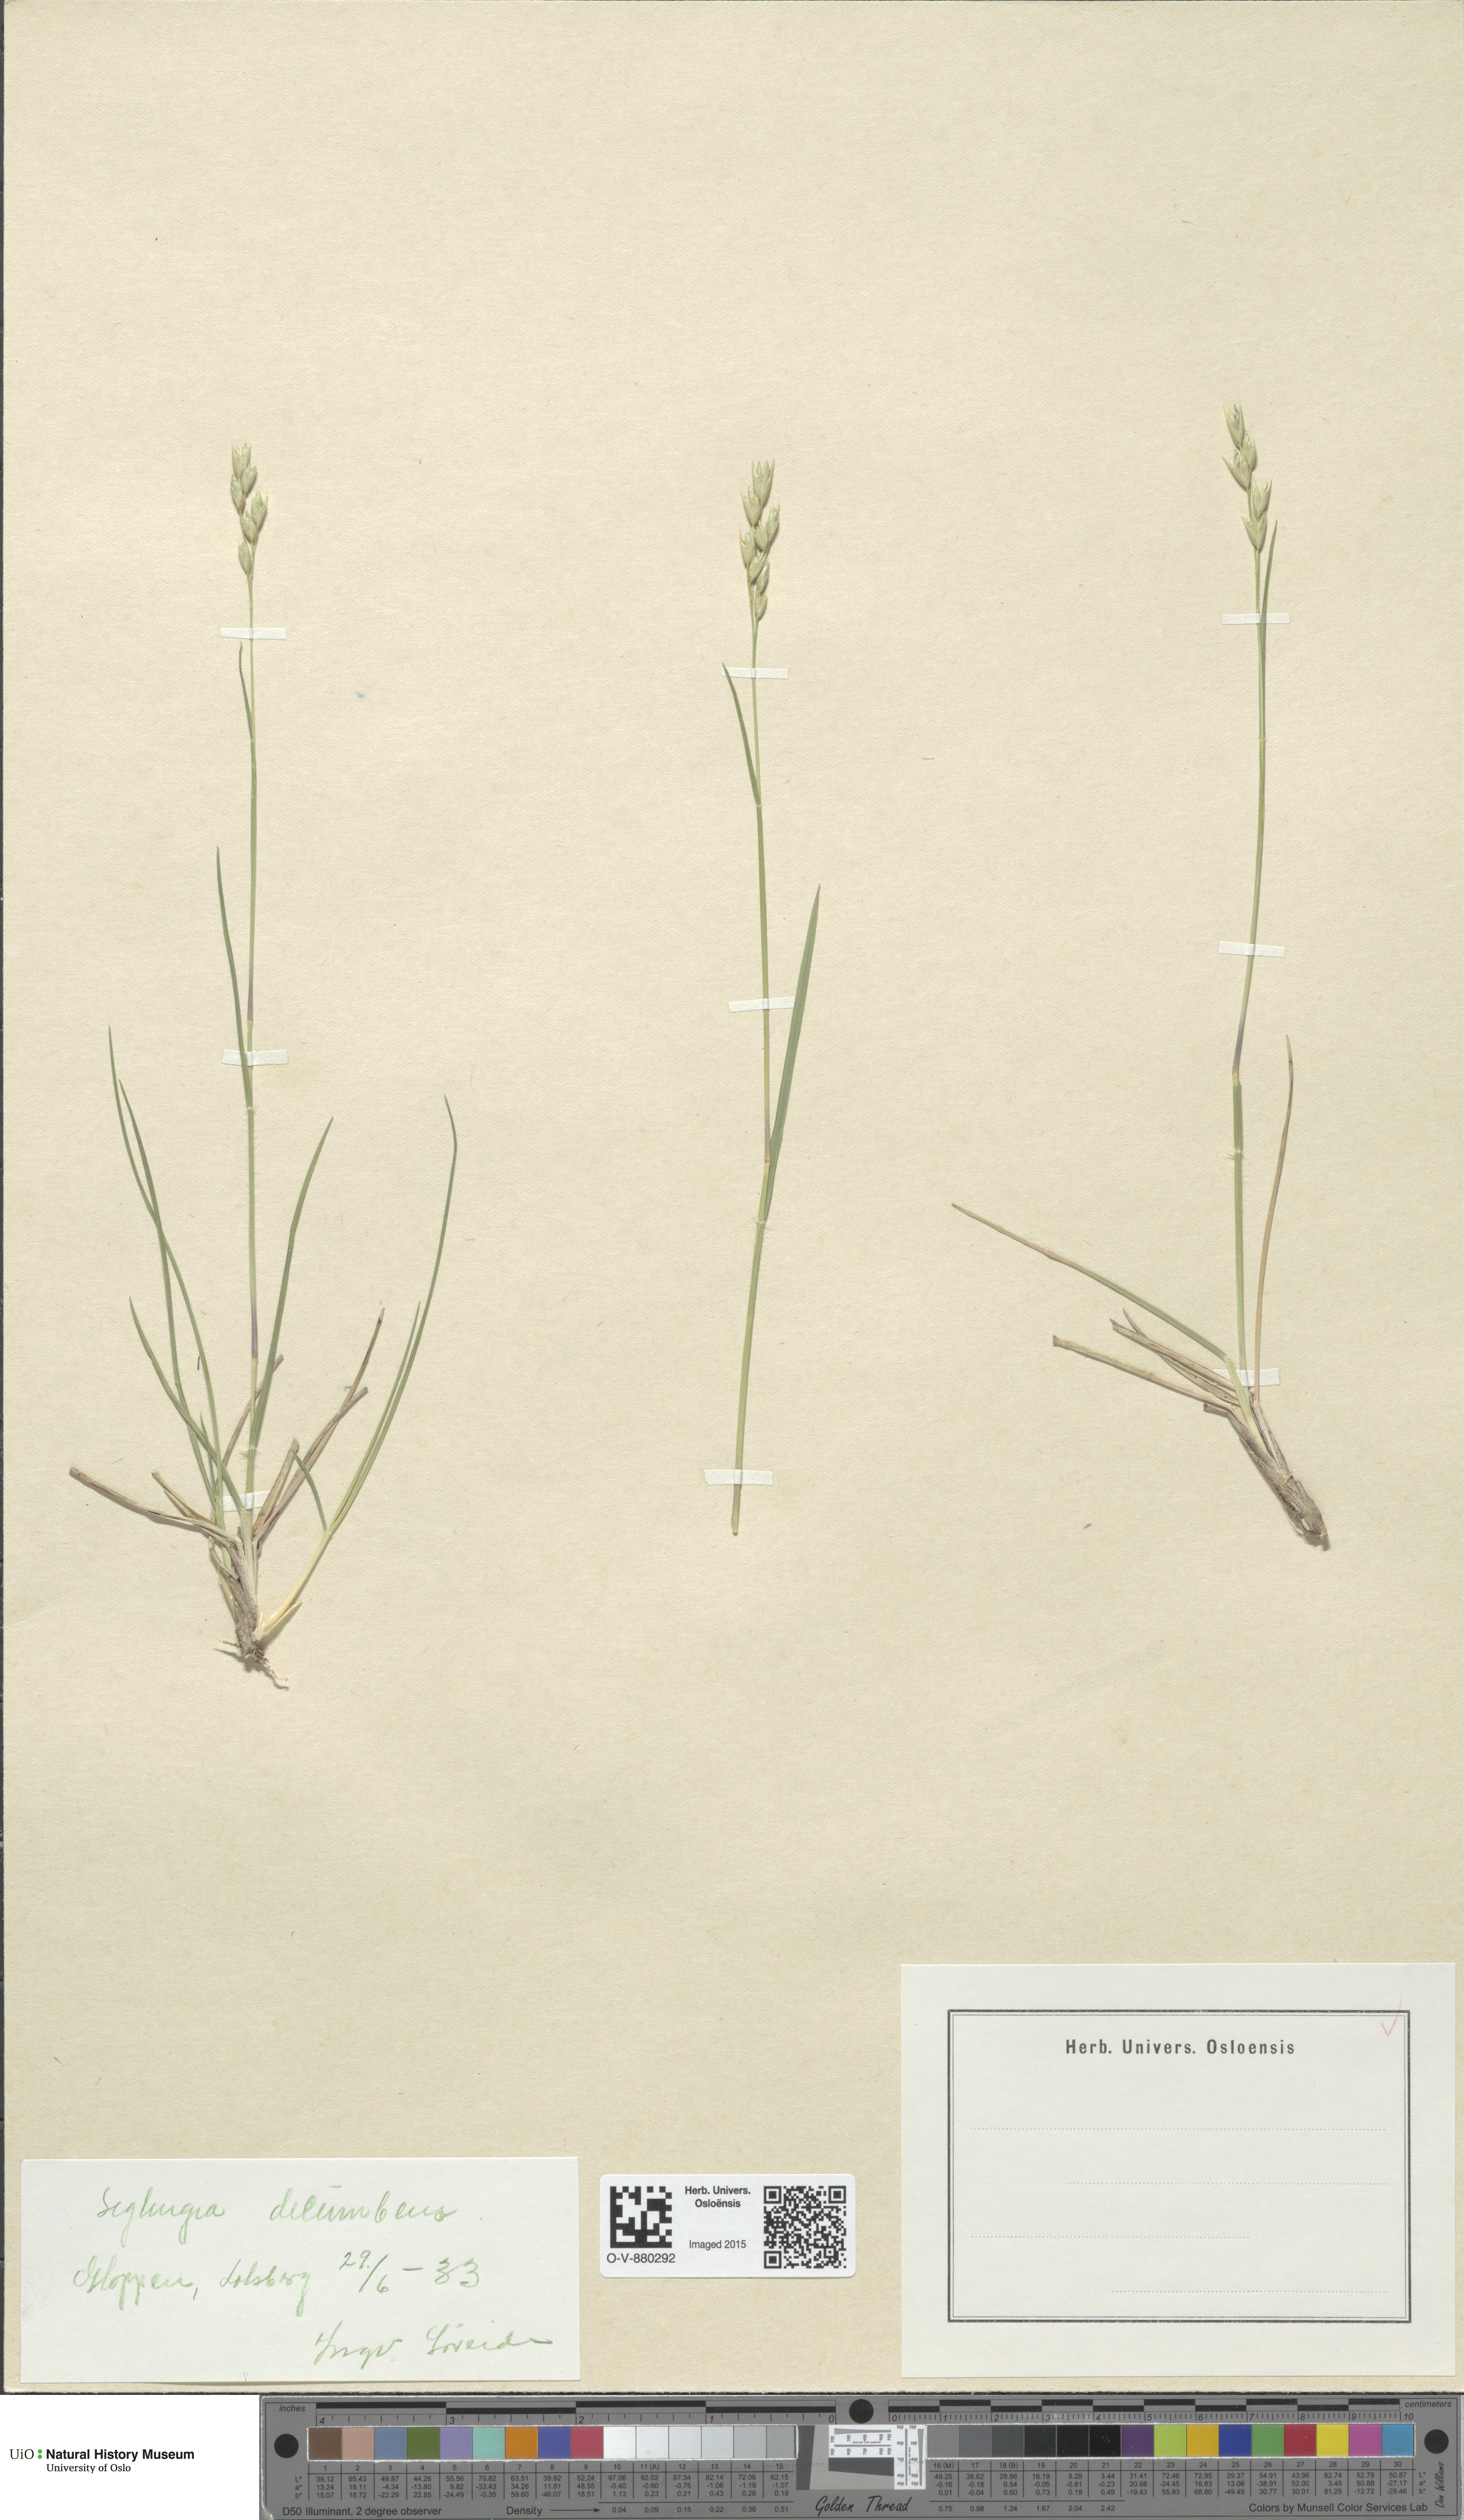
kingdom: Plantae
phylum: Tracheophyta
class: Liliopsida
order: Poales
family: Poaceae
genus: Danthonia
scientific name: Danthonia decumbens
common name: Common heathgrass
